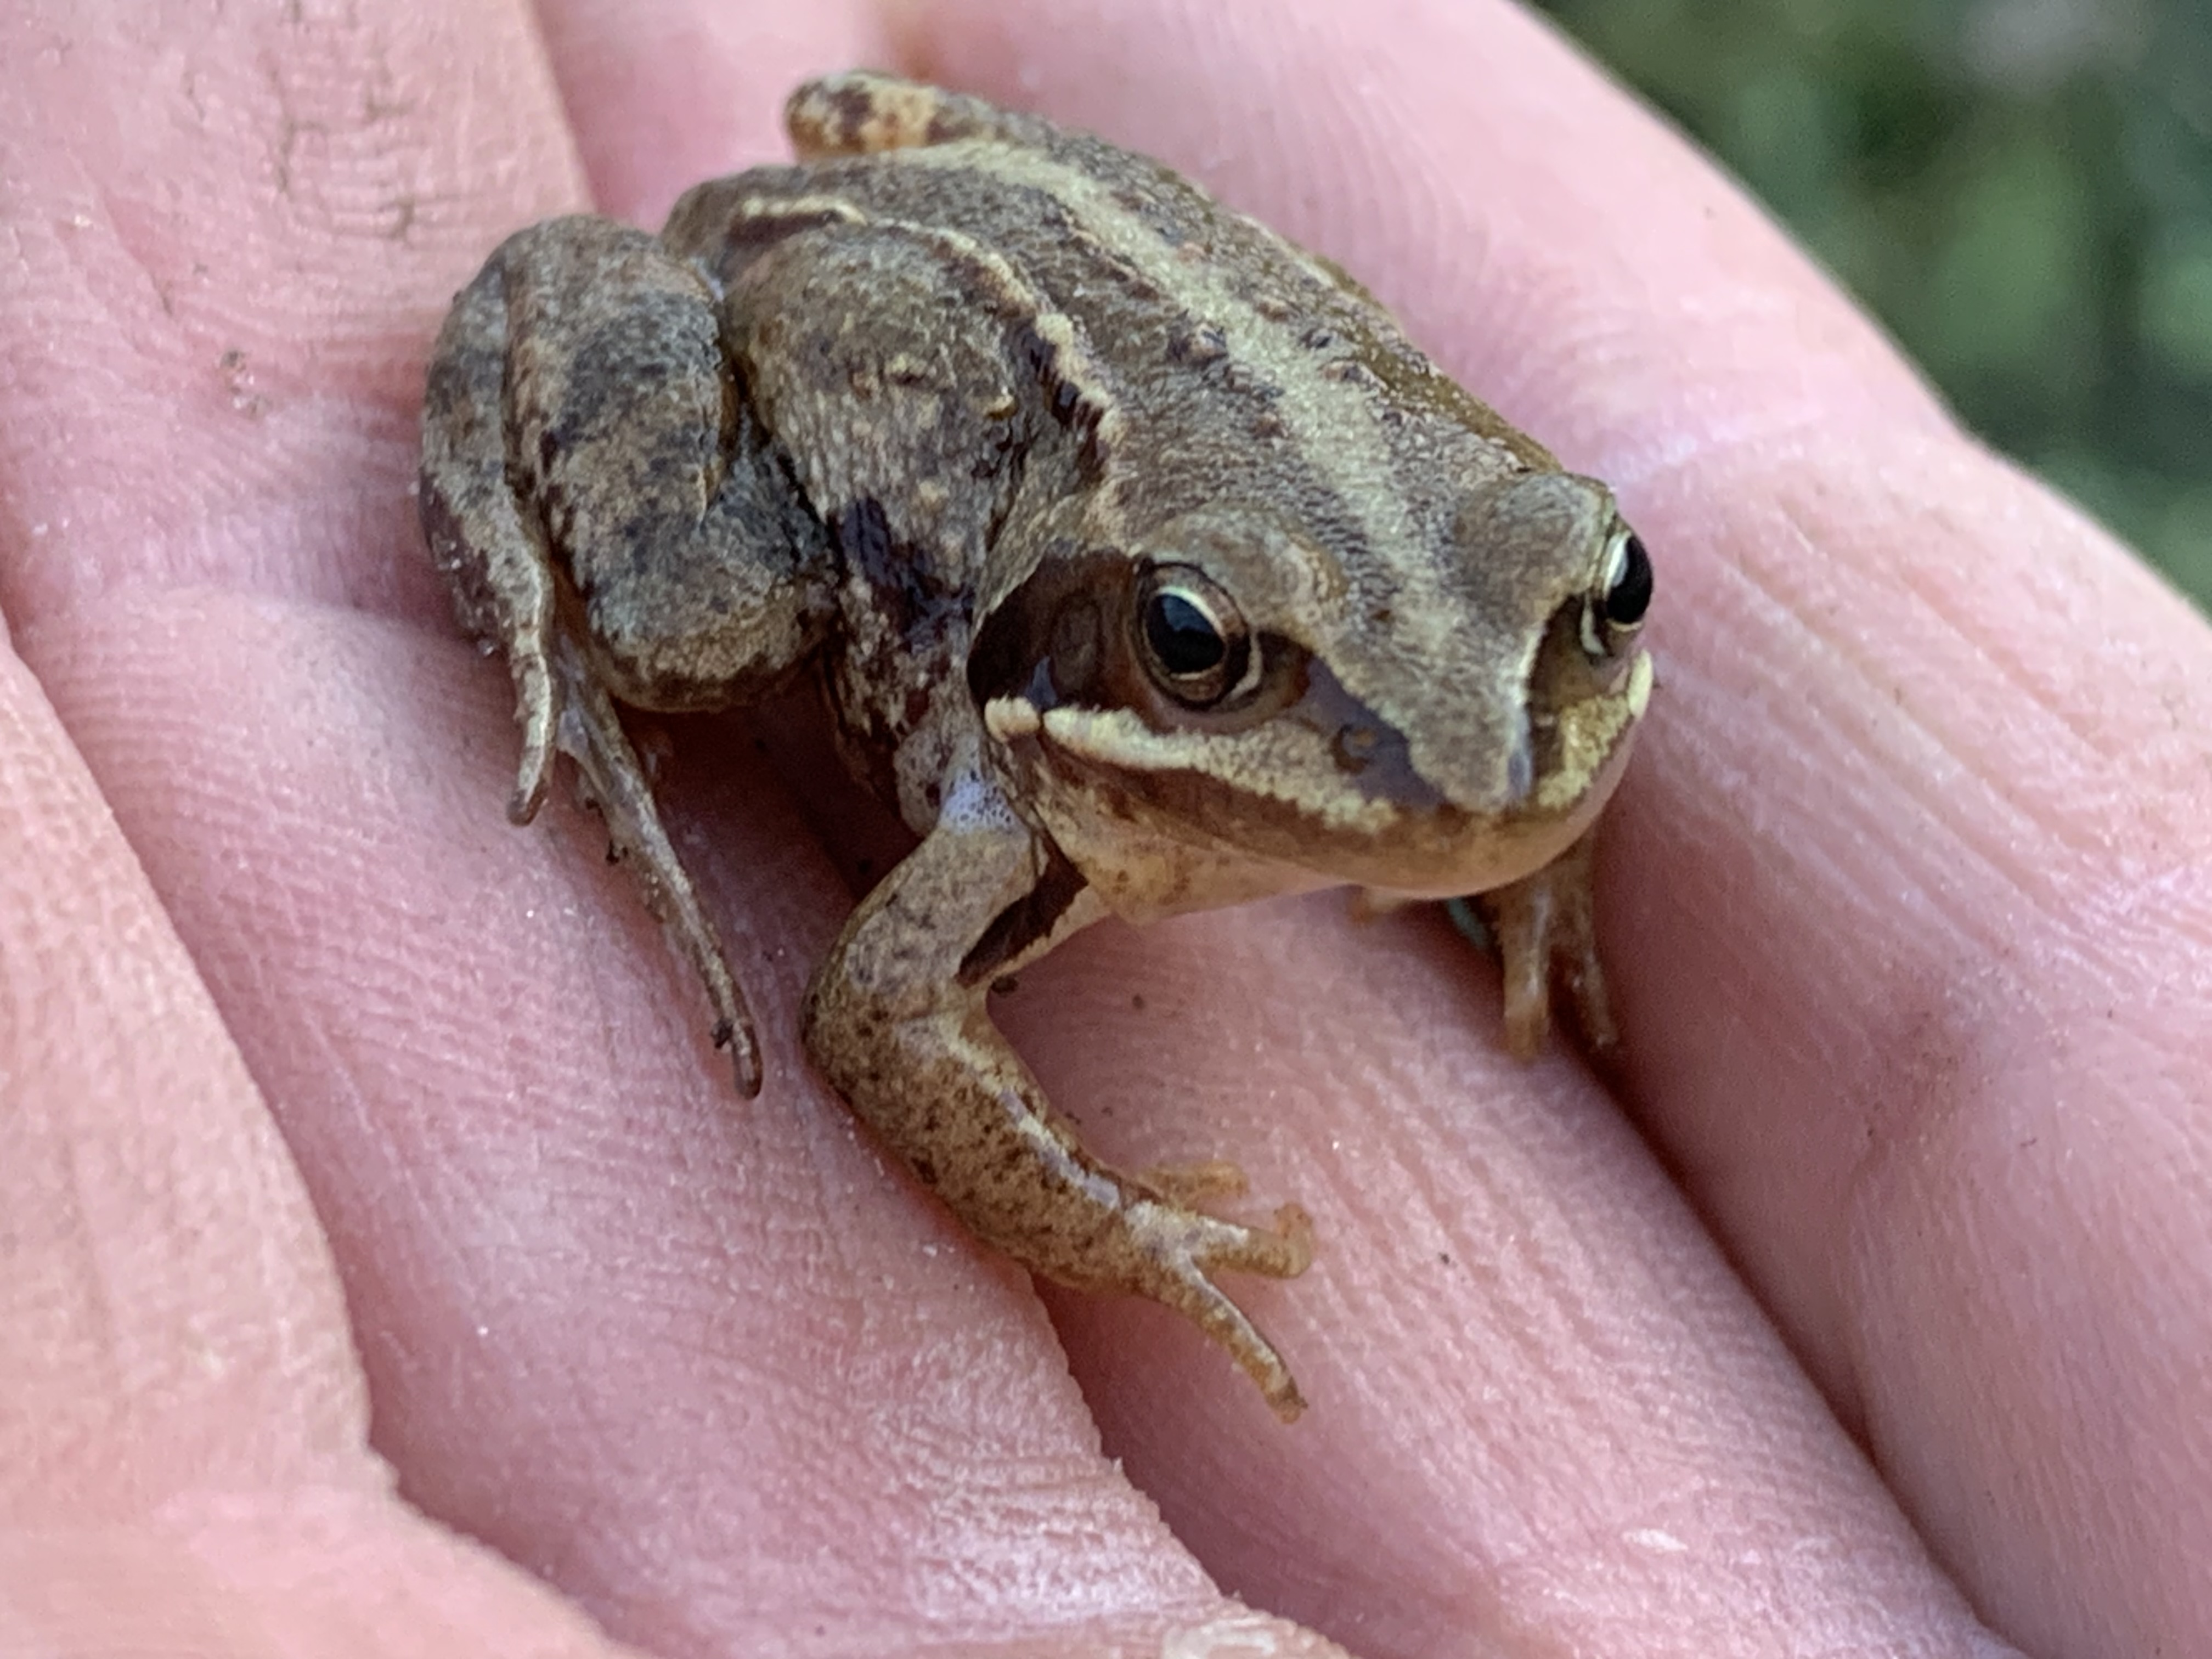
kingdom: Animalia
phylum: Chordata
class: Amphibia
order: Anura
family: Ranidae
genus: Rana
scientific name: Rana arvalis
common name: Spidssnudet frø
